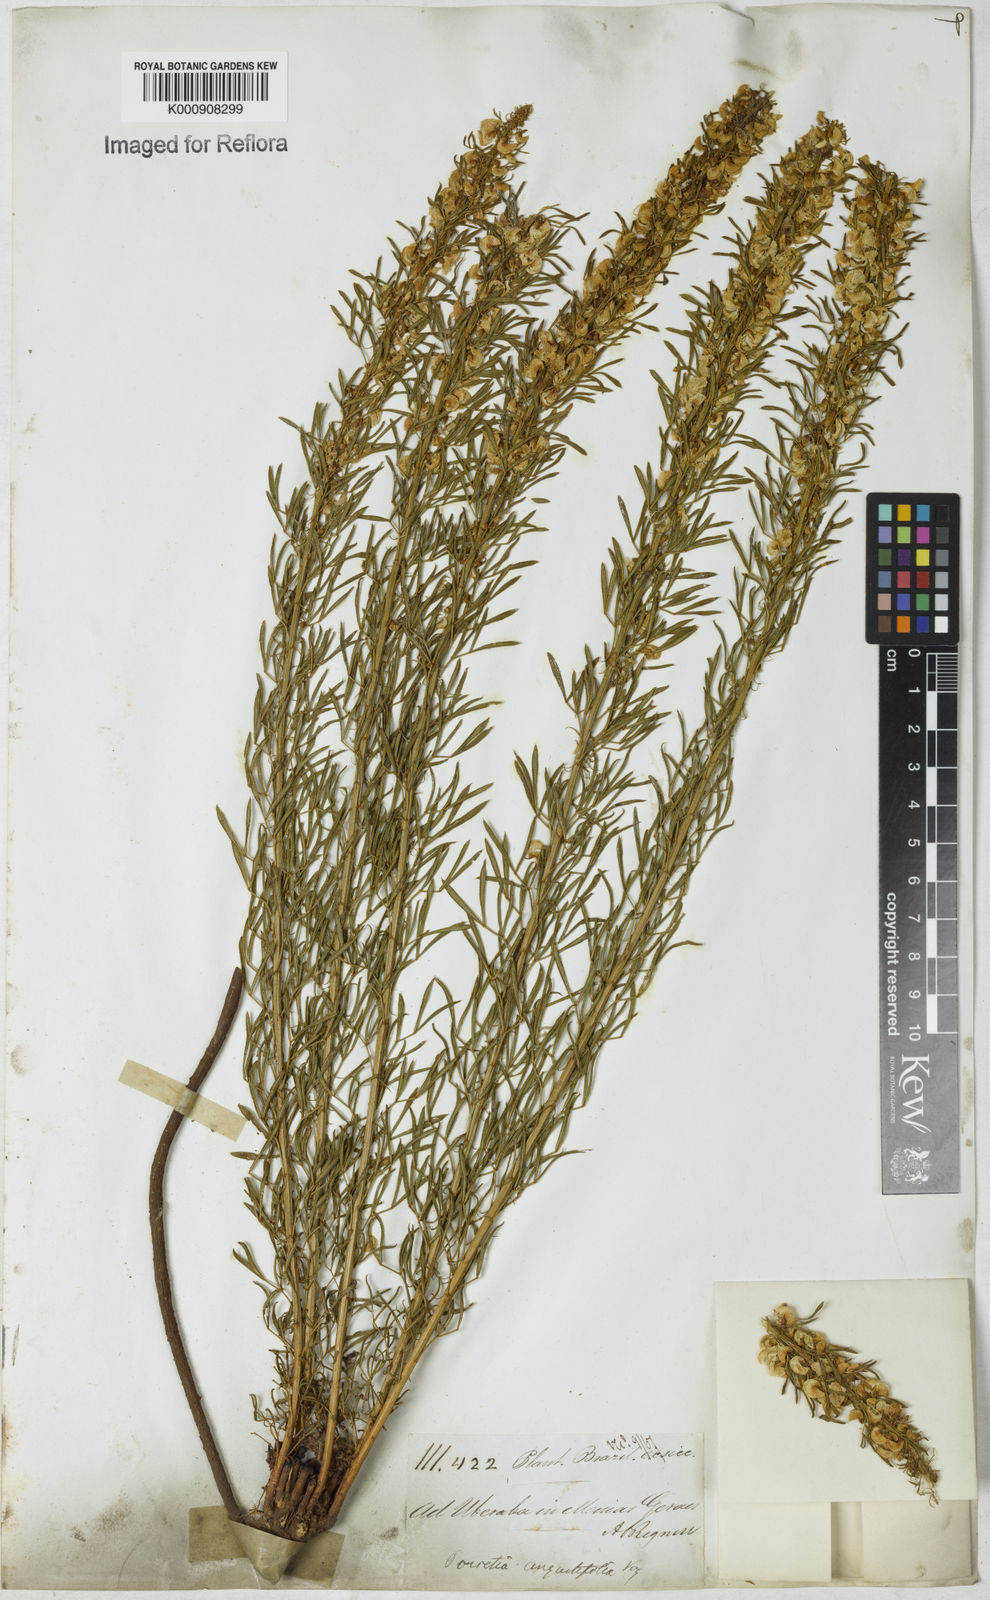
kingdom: Plantae
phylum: Tracheophyta
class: Magnoliopsida
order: Fabales
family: Fabaceae
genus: Poiretia
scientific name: Poiretia angustifolia
